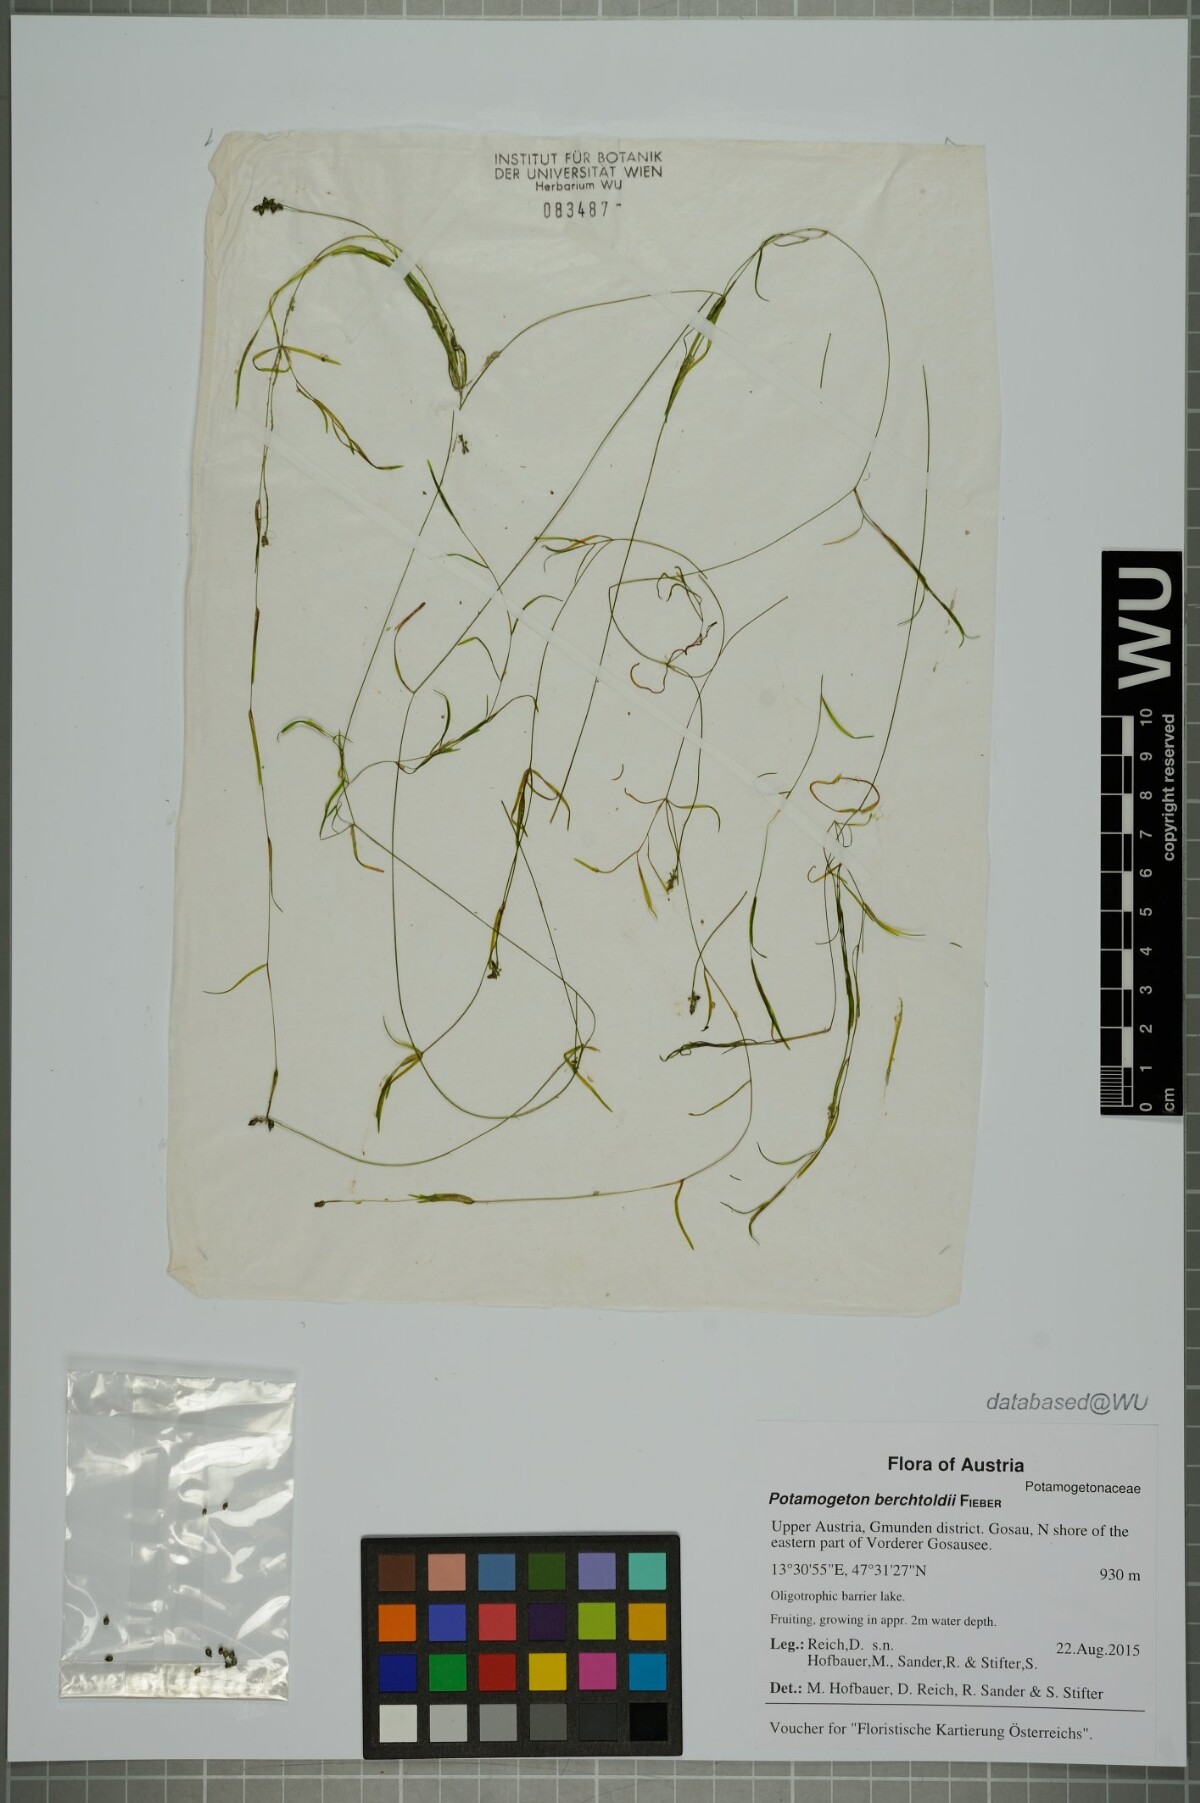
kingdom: Plantae
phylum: Tracheophyta
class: Liliopsida
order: Alismatales
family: Potamogetonaceae
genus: Potamogeton
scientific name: Potamogeton berchtoldii
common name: Small pondweed
